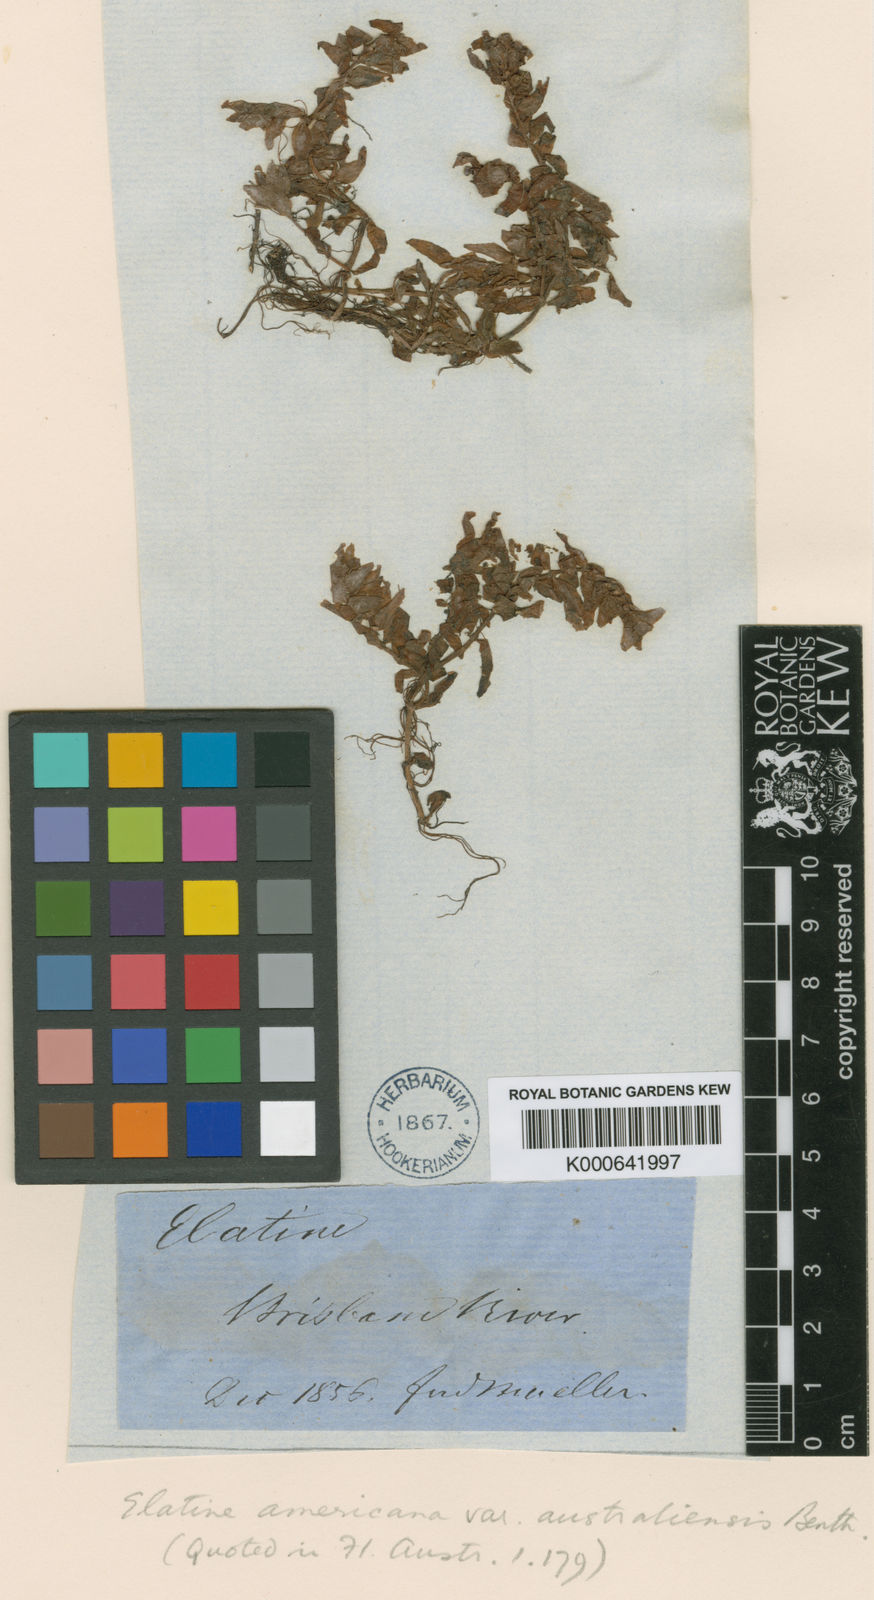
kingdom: Plantae
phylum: Tracheophyta
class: Magnoliopsida
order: Malpighiales
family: Elatinaceae
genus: Elatine
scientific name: Elatine gratioloides
